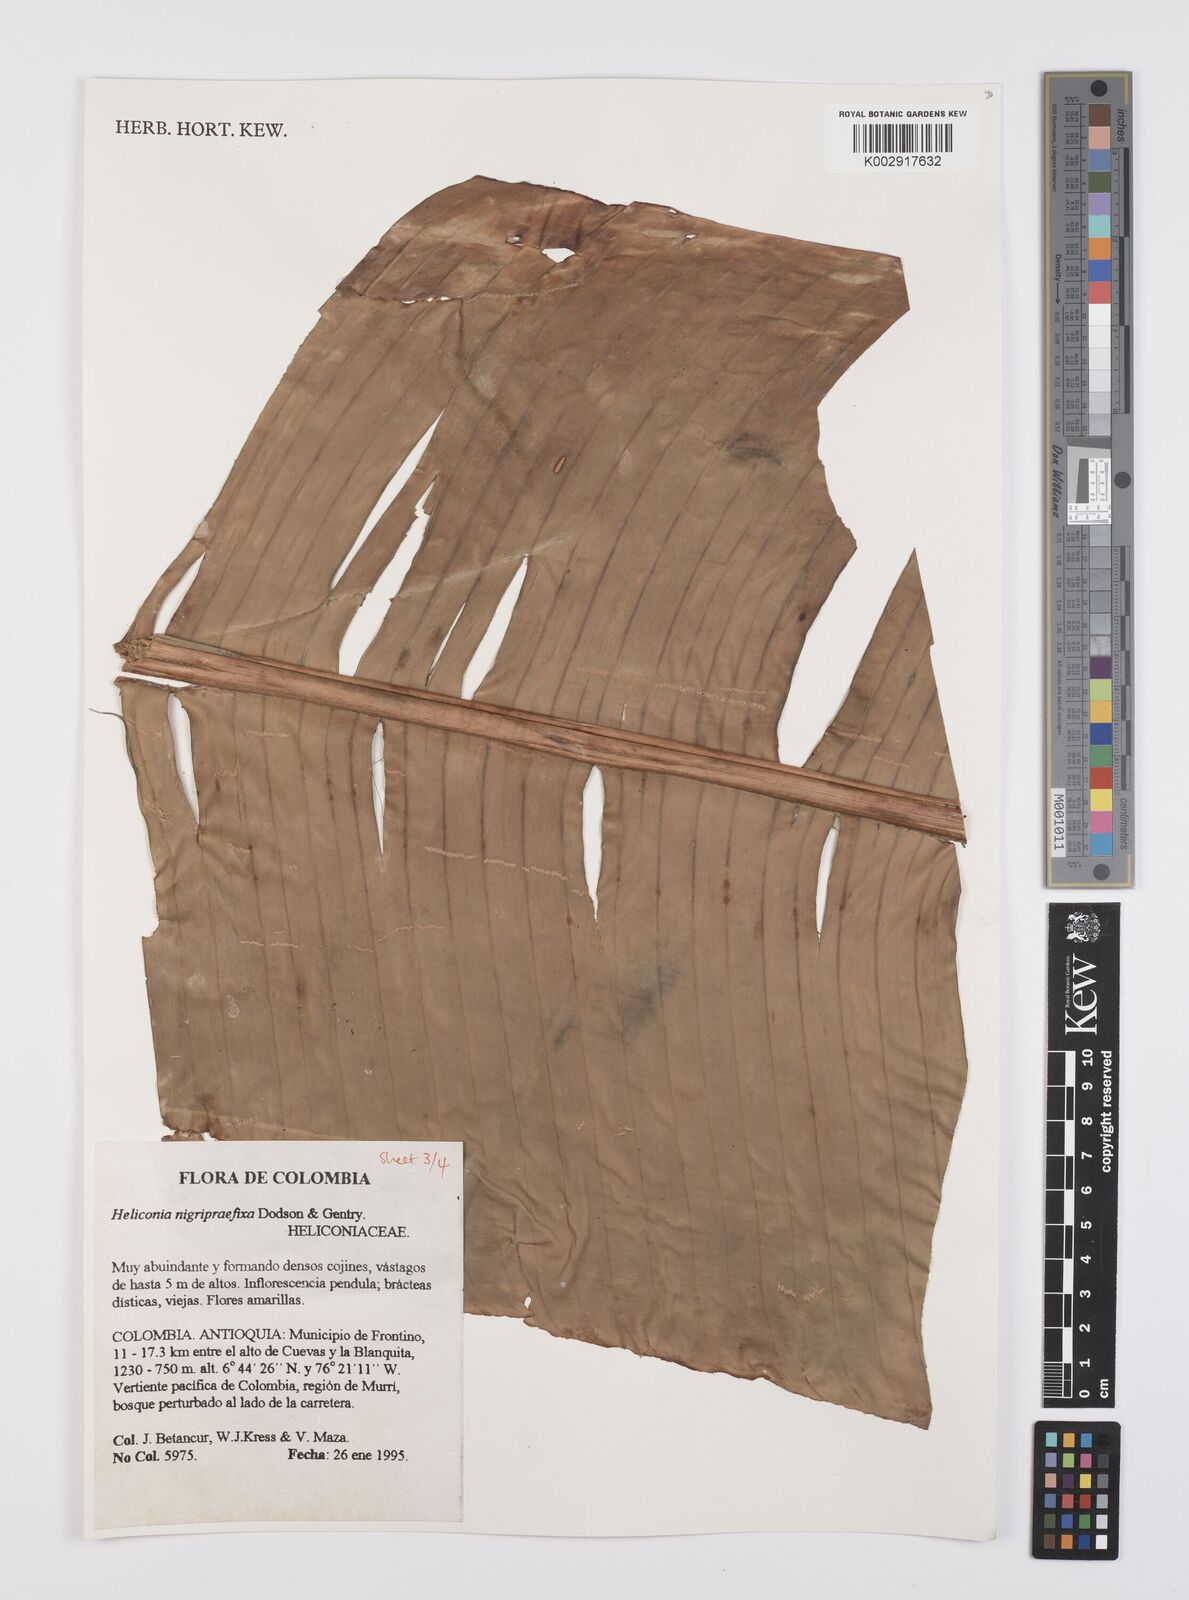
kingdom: Plantae
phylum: Tracheophyta
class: Liliopsida
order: Zingiberales
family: Heliconiaceae
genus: Heliconia
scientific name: Heliconia nigripraefixa
